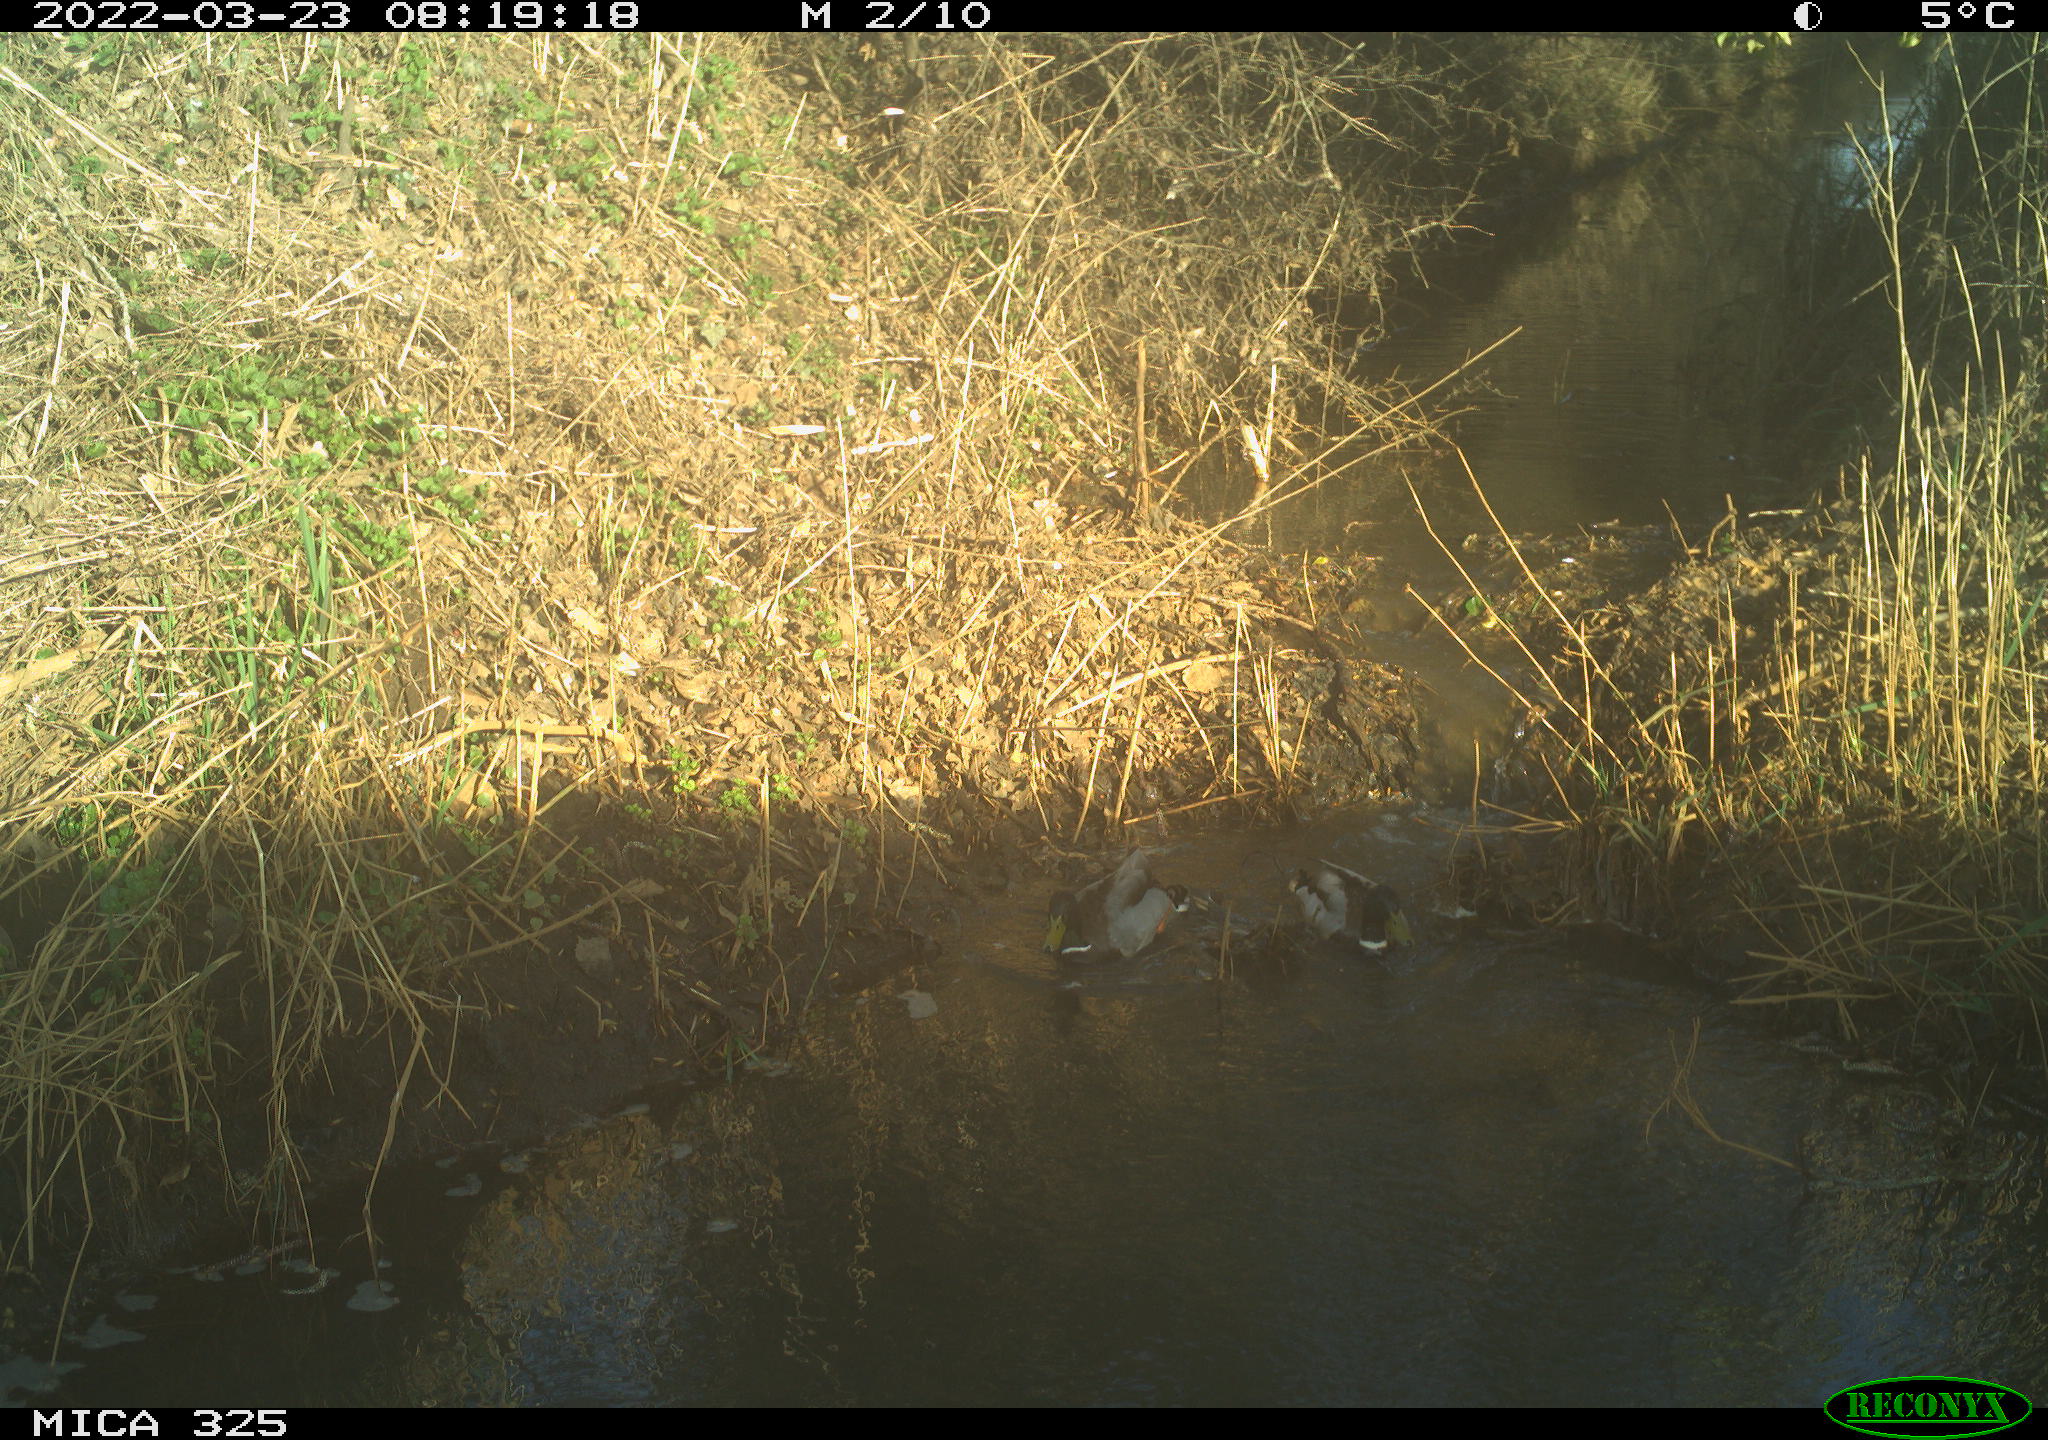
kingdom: Animalia
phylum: Chordata
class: Aves
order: Anseriformes
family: Anatidae
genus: Anas
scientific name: Anas platyrhynchos
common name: Mallard
